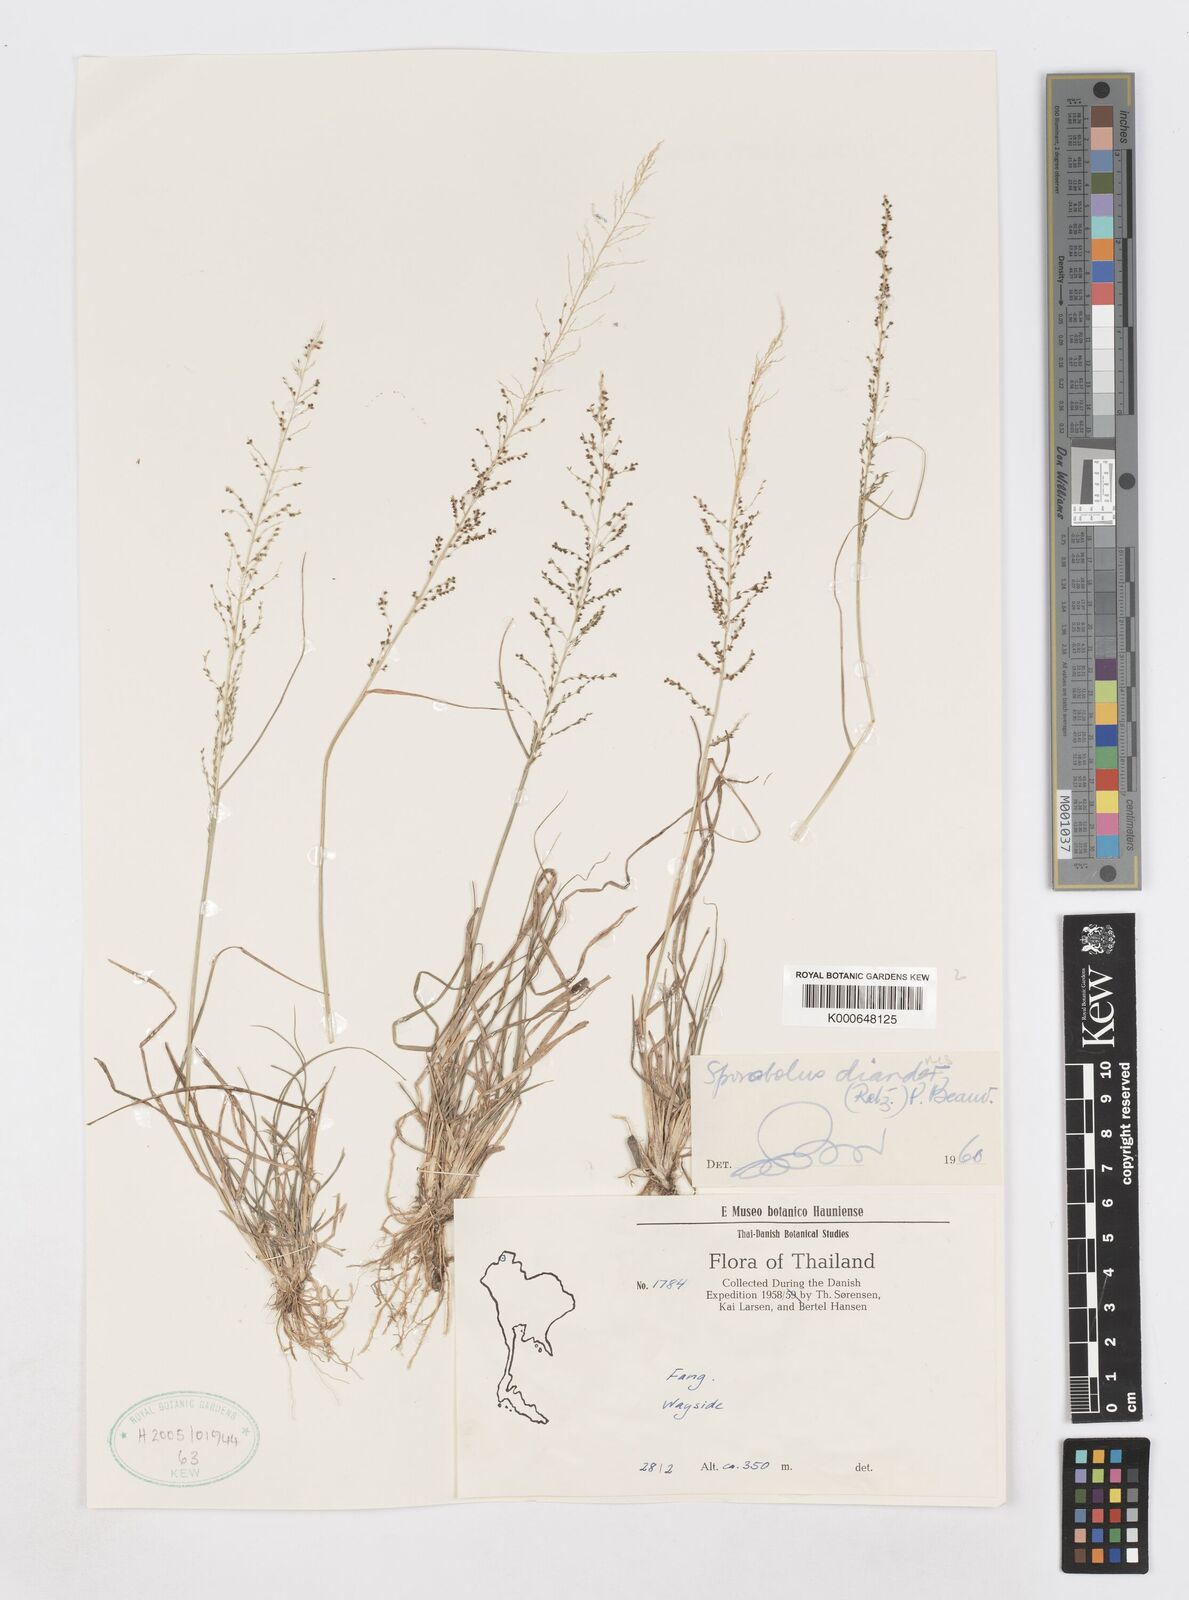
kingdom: Plantae
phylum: Tracheophyta
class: Liliopsida
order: Poales
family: Poaceae
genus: Sporobolus
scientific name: Sporobolus diandrus
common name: Tussock dropseed
